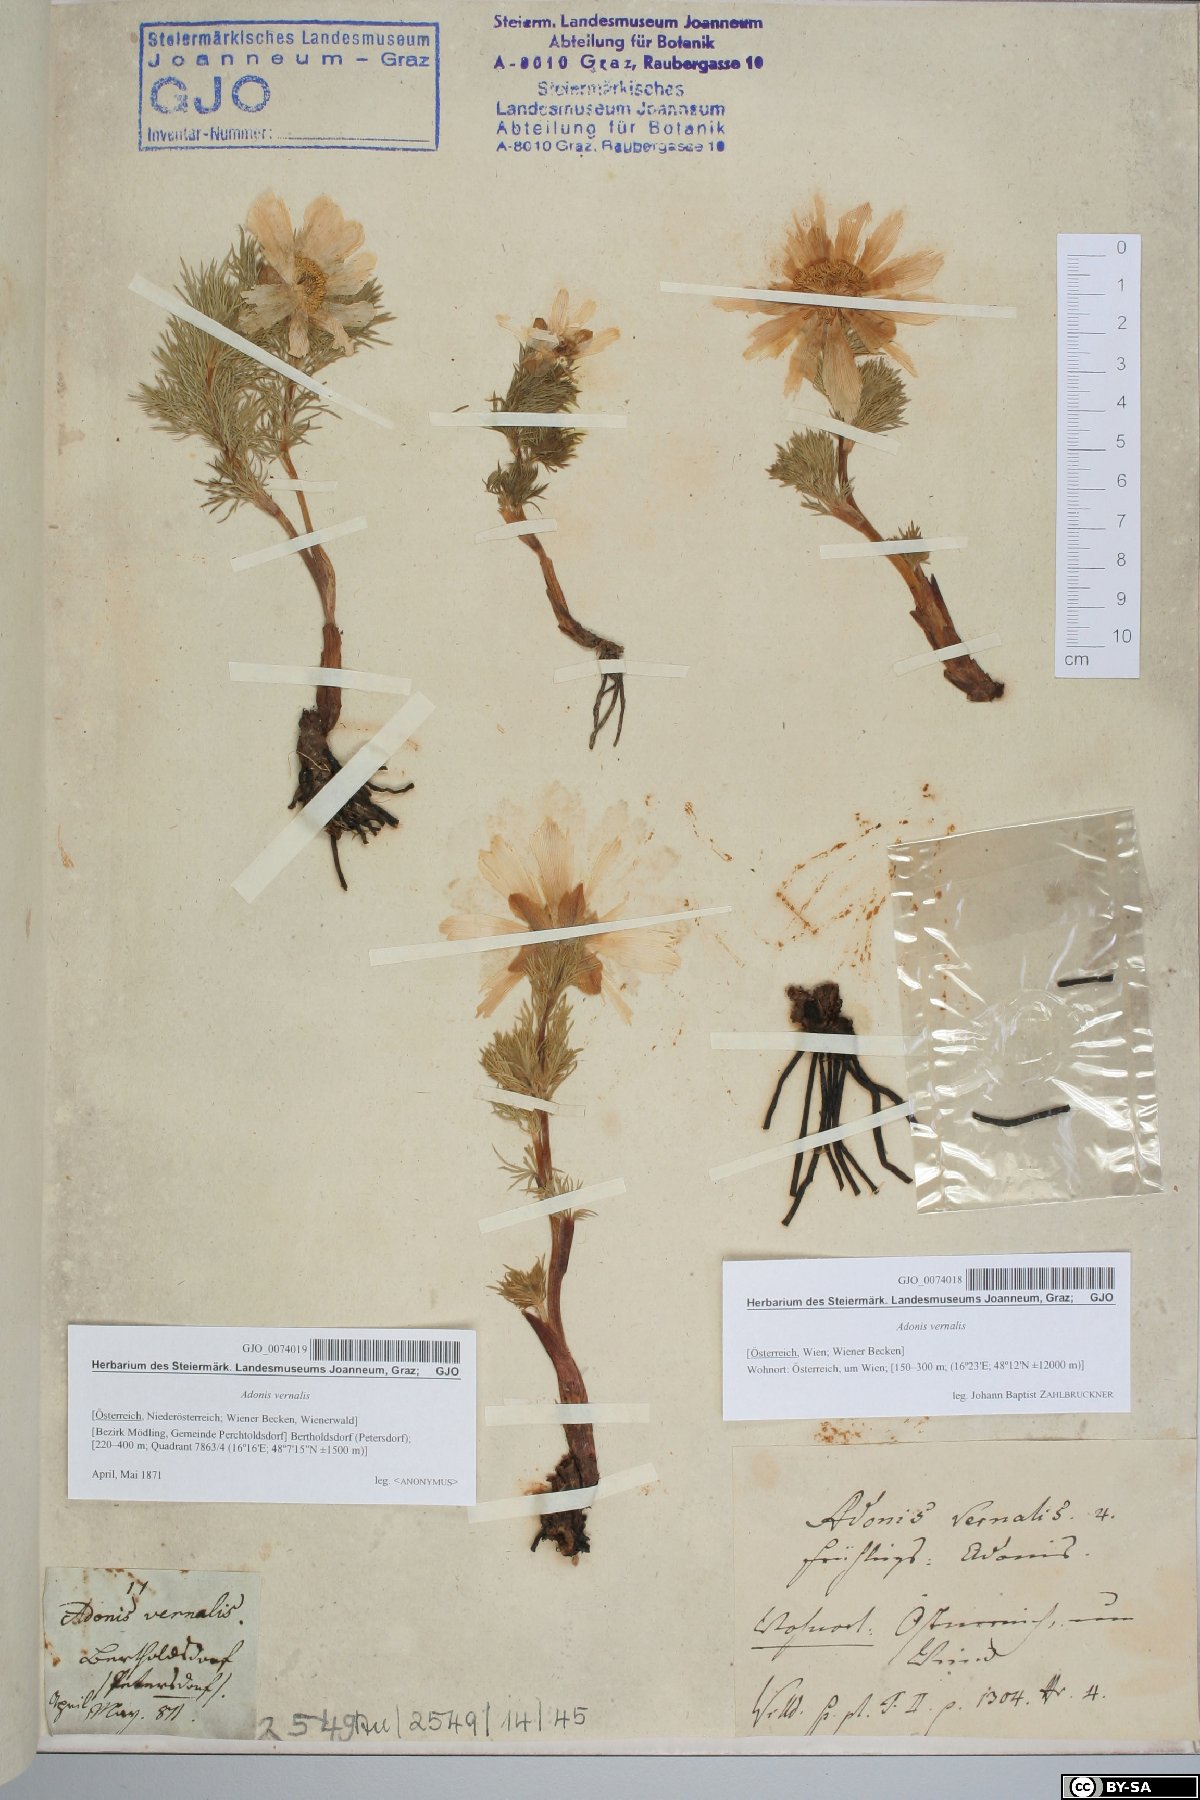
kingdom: Plantae
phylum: Tracheophyta
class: Magnoliopsida
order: Ranunculales
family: Ranunculaceae
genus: Adonis
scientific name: Adonis vernalis
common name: Yellow pheasants-eye
